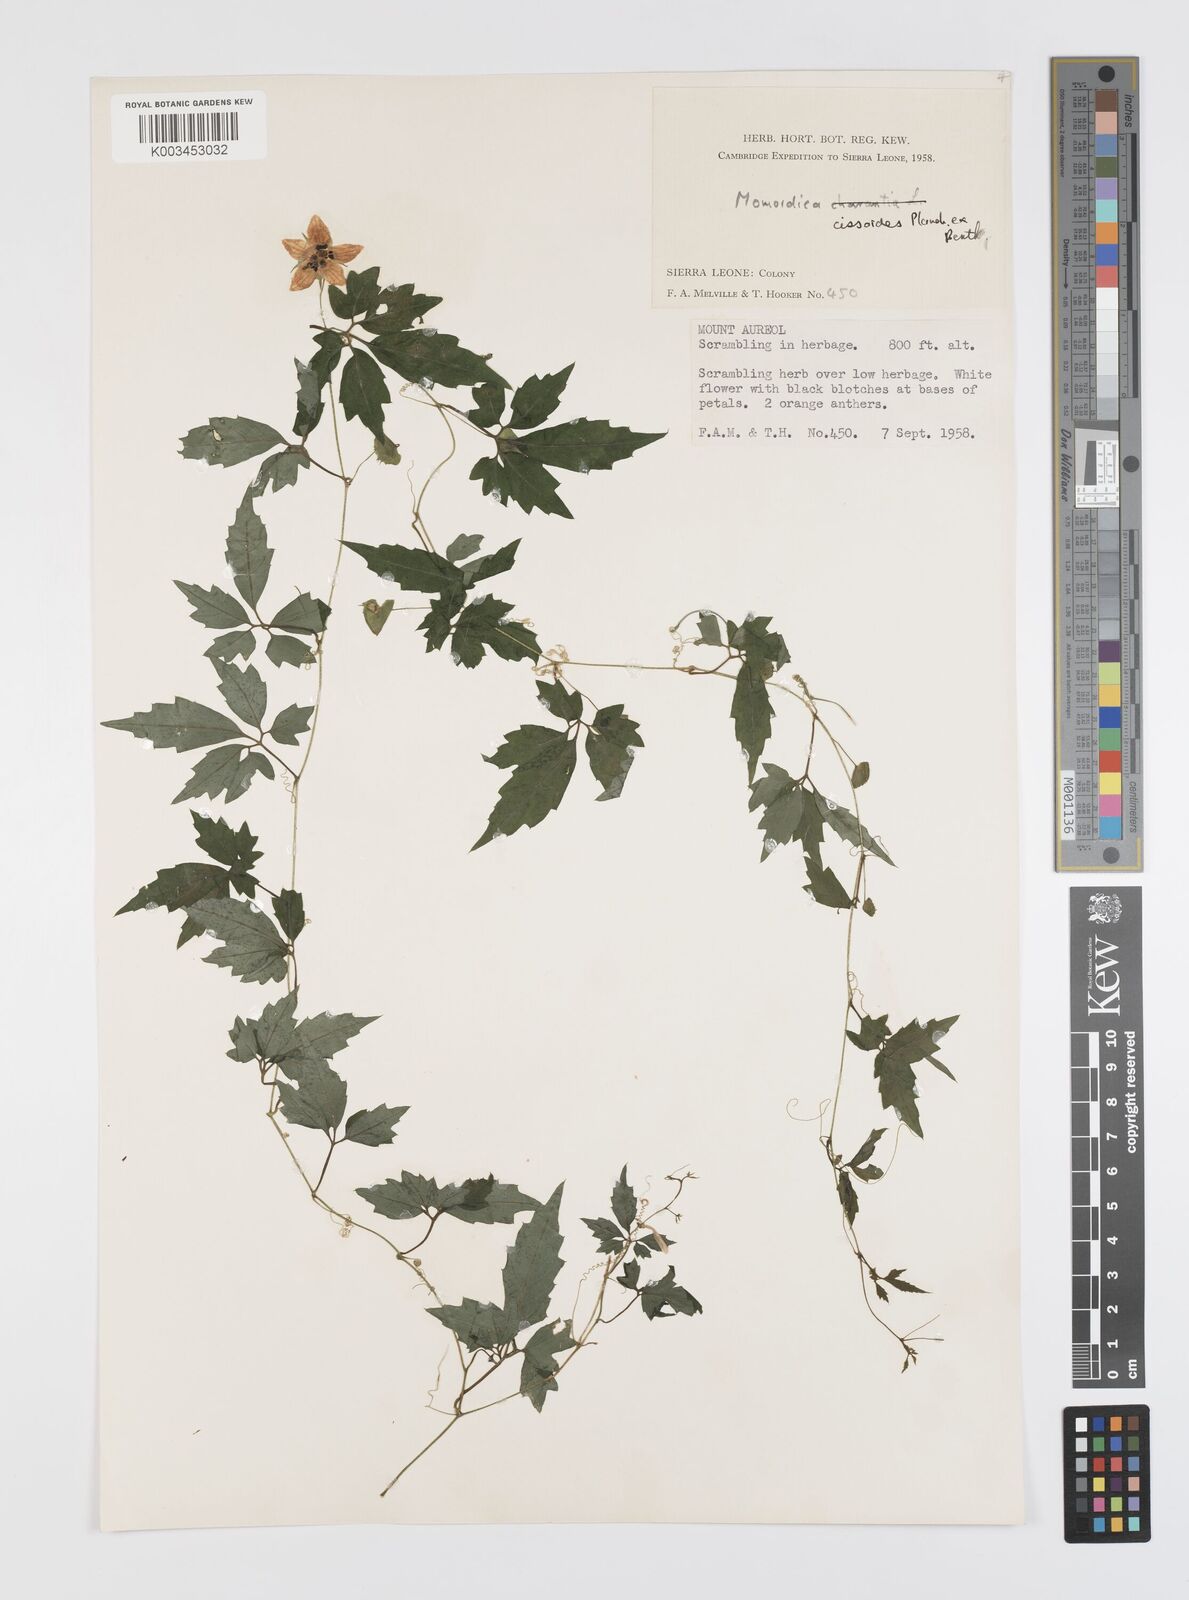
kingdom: Plantae
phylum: Tracheophyta
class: Magnoliopsida
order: Cucurbitales
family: Cucurbitaceae
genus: Momordica
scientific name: Momordica cissoides
